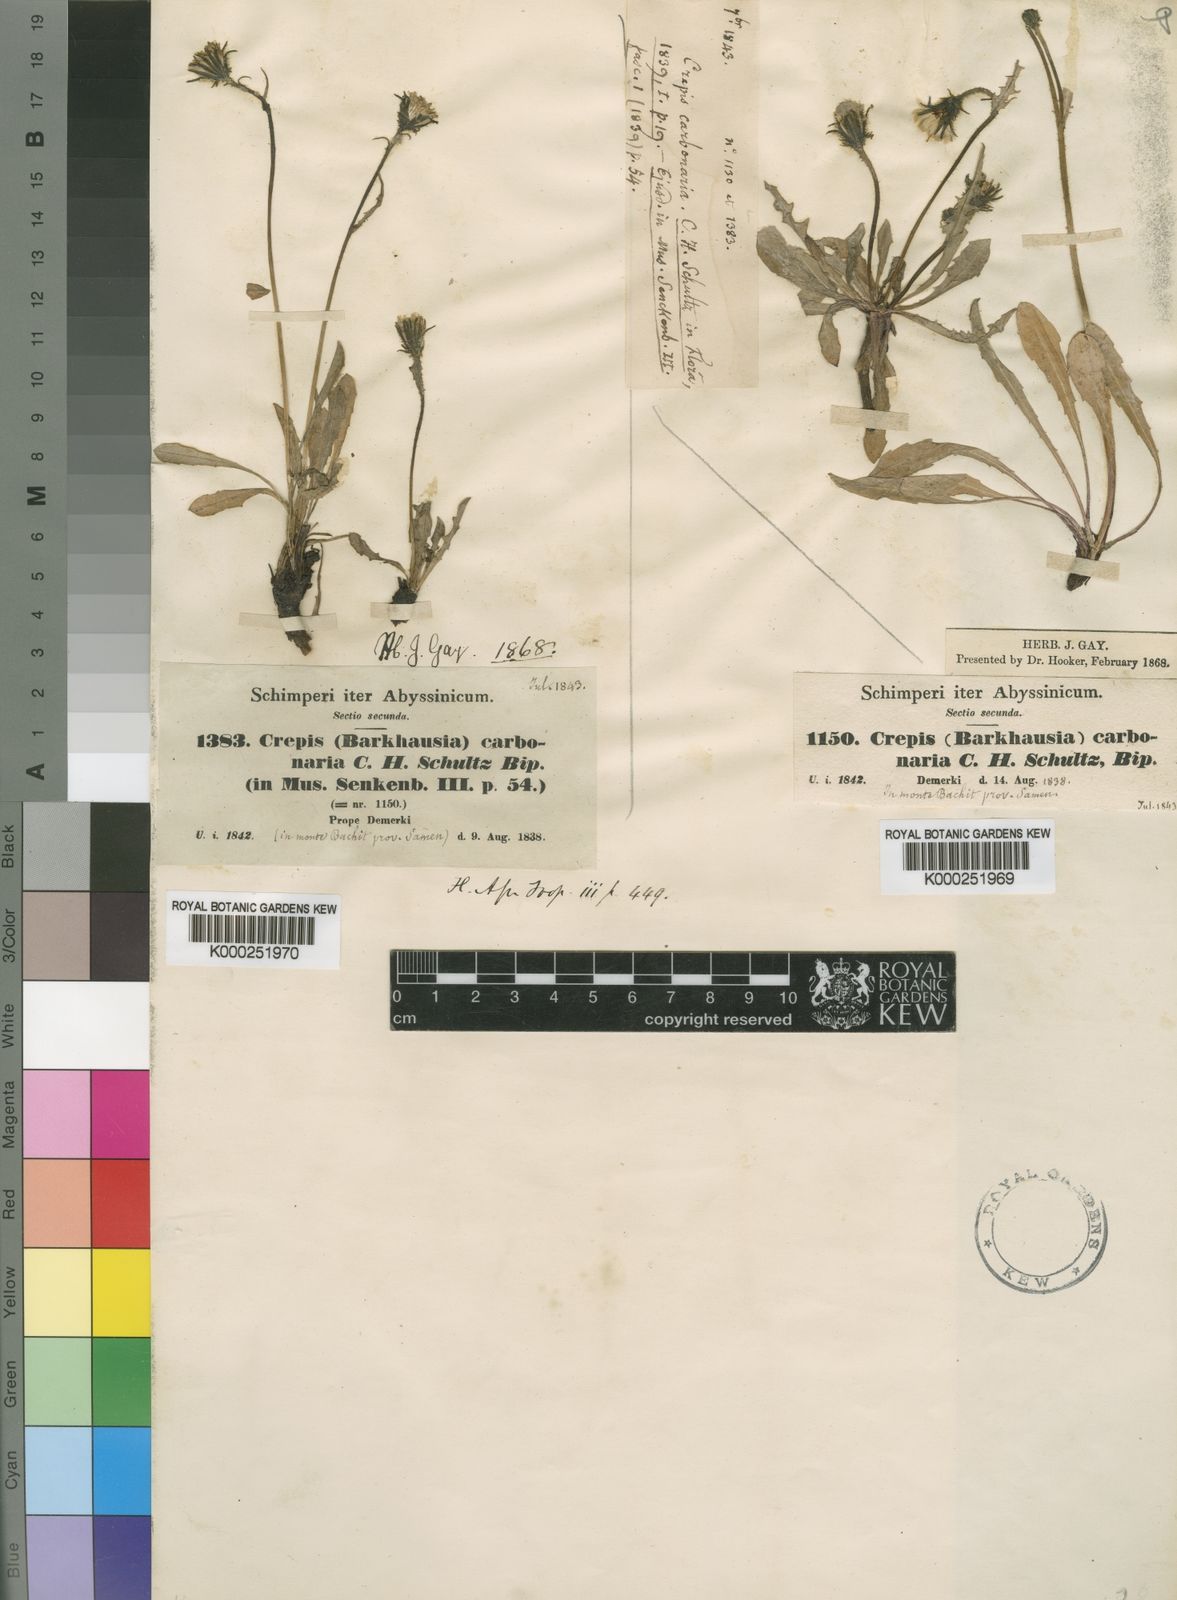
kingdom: Plantae
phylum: Tracheophyta
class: Magnoliopsida
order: Asterales
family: Asteraceae
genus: Crepis
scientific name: Crepis carbonaria
